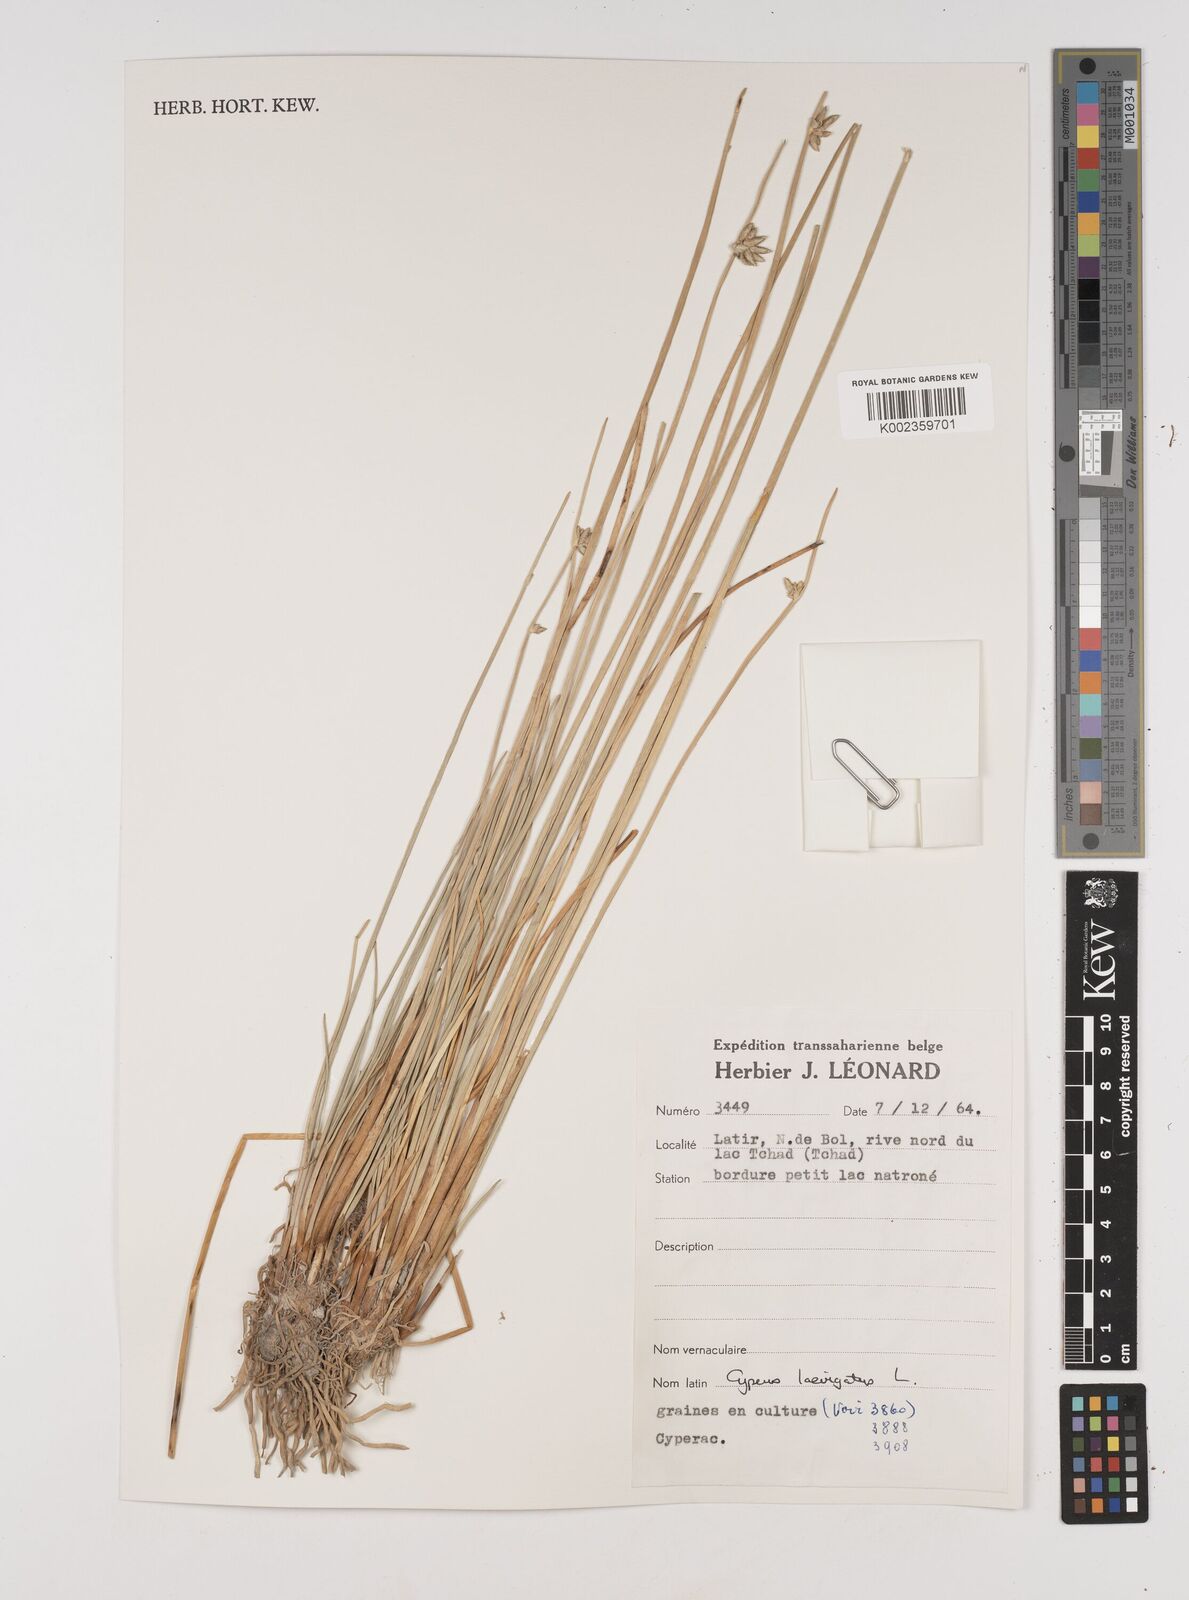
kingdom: Plantae
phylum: Tracheophyta
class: Liliopsida
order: Poales
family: Cyperaceae
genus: Cyperus
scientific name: Cyperus laevigatus
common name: Smooth flat sedge
